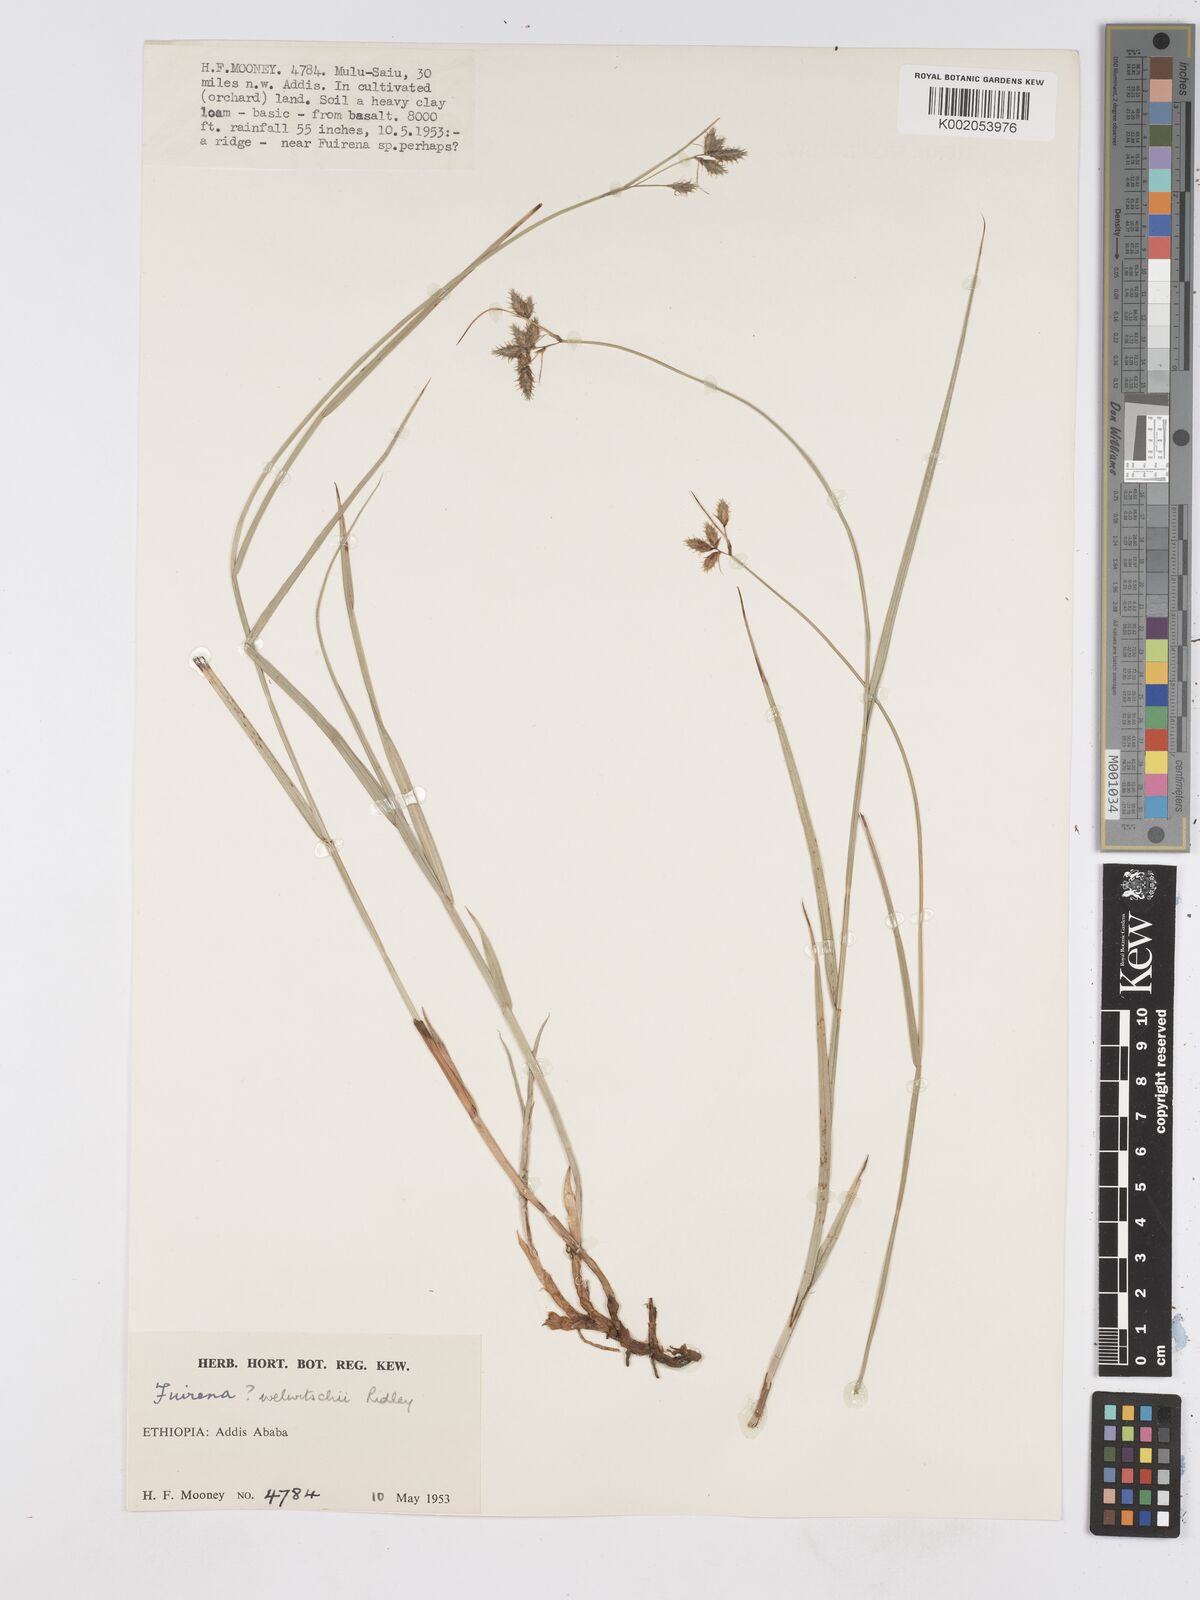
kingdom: Plantae
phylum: Tracheophyta
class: Liliopsida
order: Poales
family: Cyperaceae
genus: Fuirena
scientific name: Fuirena pachyrrhiza
